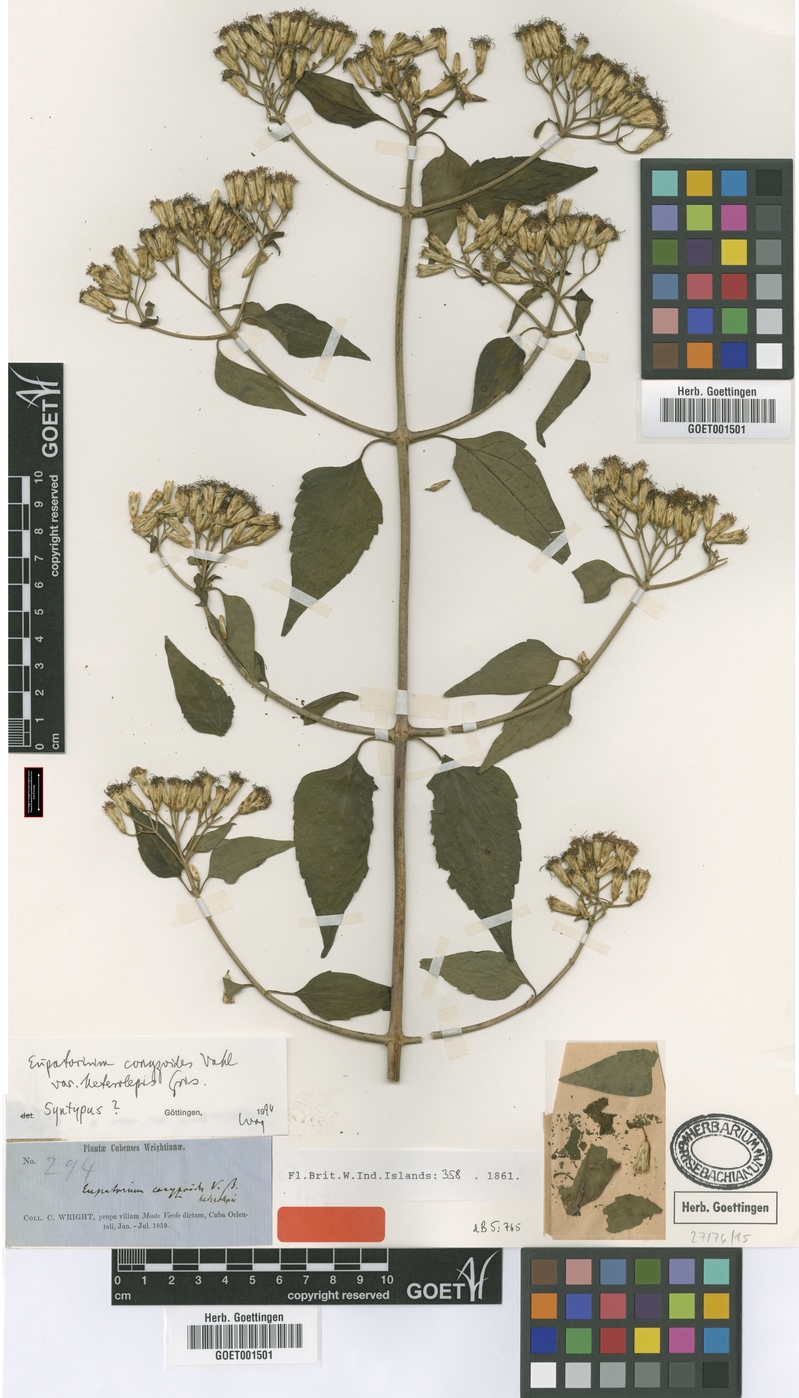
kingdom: Plantae
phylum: Tracheophyta
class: Magnoliopsida
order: Asterales
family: Asteraceae
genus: Chromolaena
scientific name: Chromolaena odorata
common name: Siamweed
